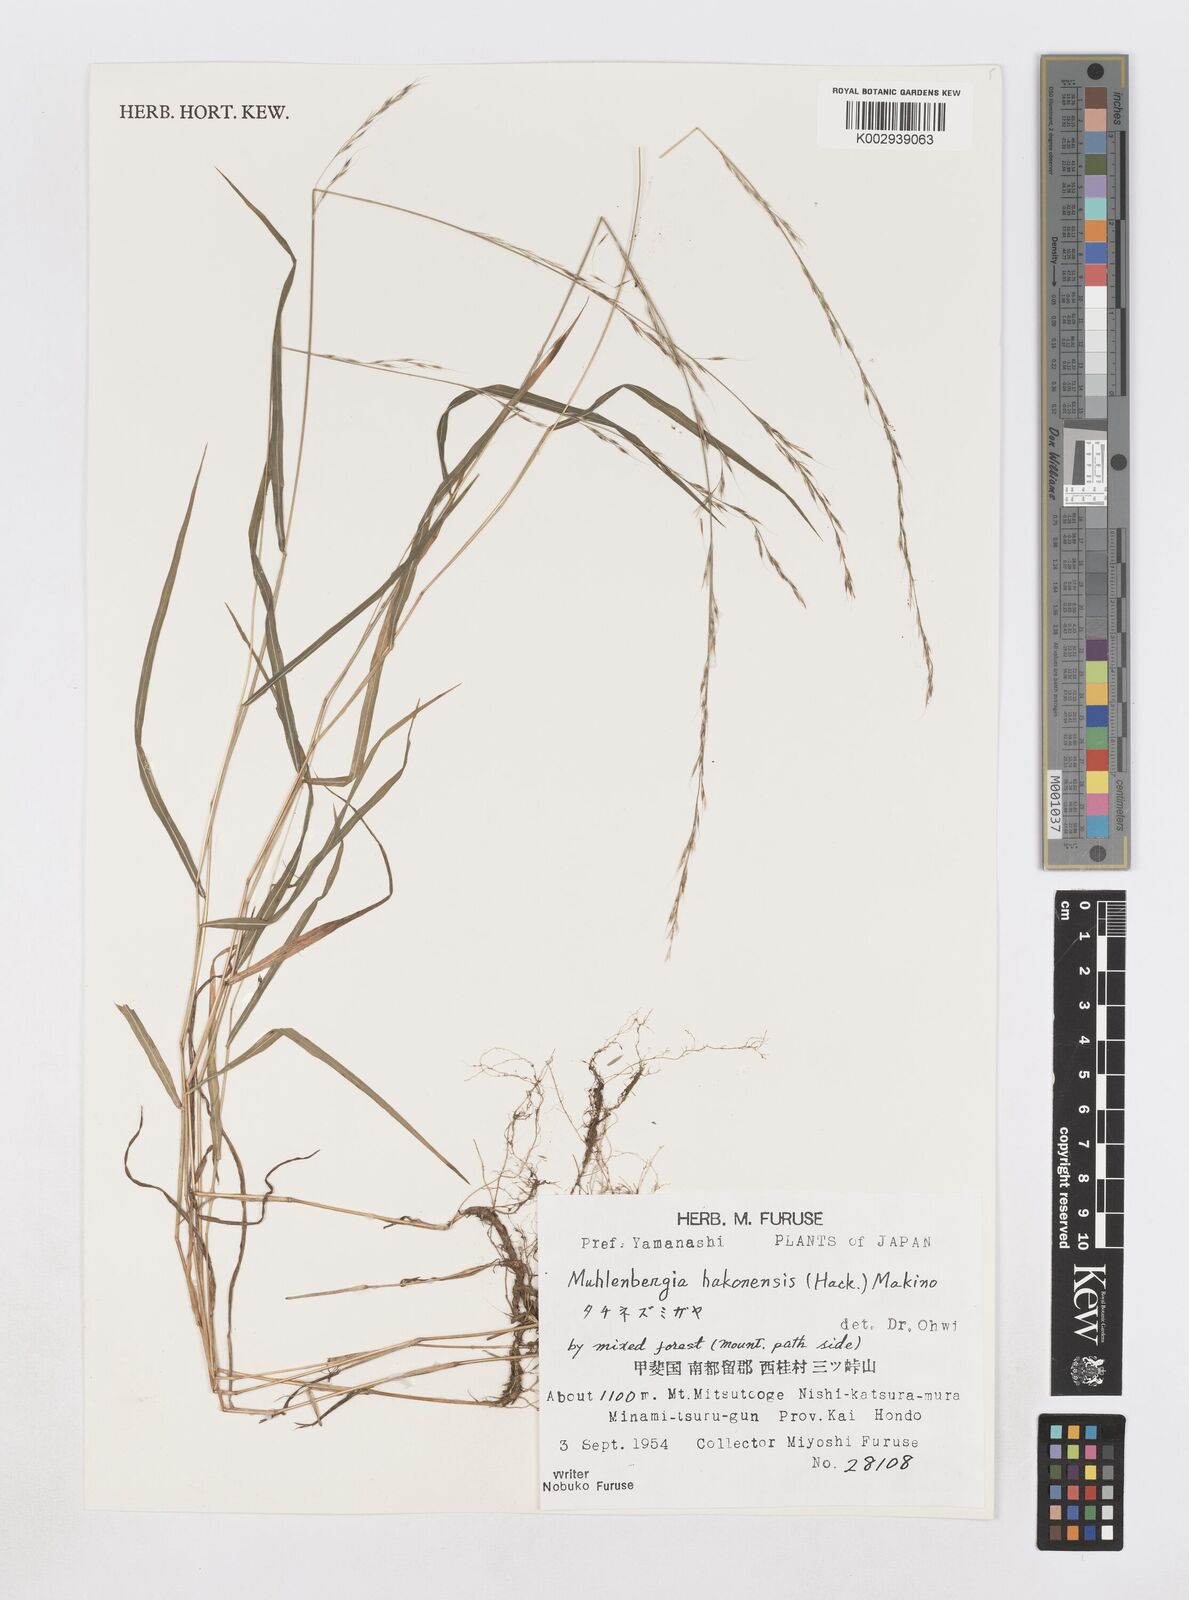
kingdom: Plantae
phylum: Tracheophyta
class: Liliopsida
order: Poales
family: Poaceae
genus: Muhlenbergia
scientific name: Muhlenbergia hakonensis
